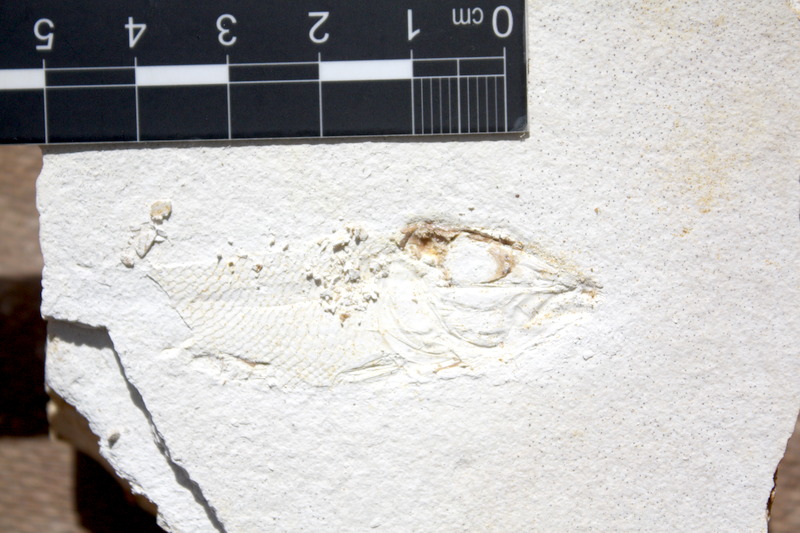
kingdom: Animalia
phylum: Chordata
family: Macrosemiidae
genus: Notagogus
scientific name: Notagogus denticulatus
